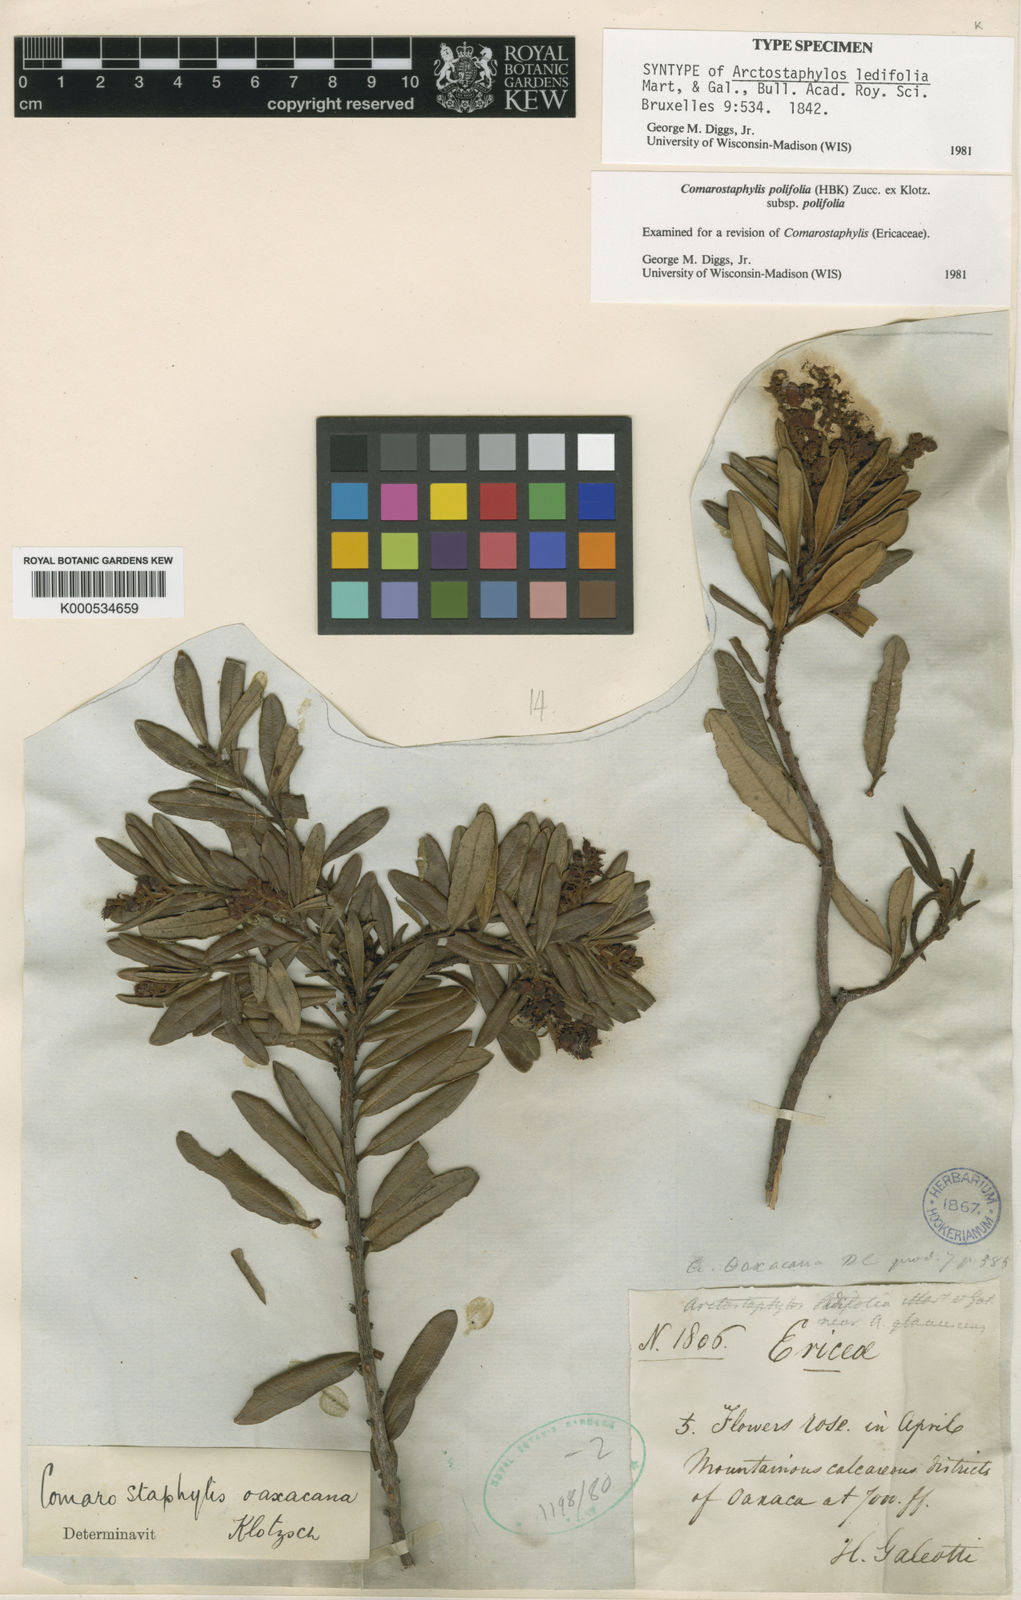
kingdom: Plantae
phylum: Tracheophyta
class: Magnoliopsida
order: Ericales
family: Ericaceae
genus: Comarostaphylis
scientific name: Comarostaphylis polifolia
